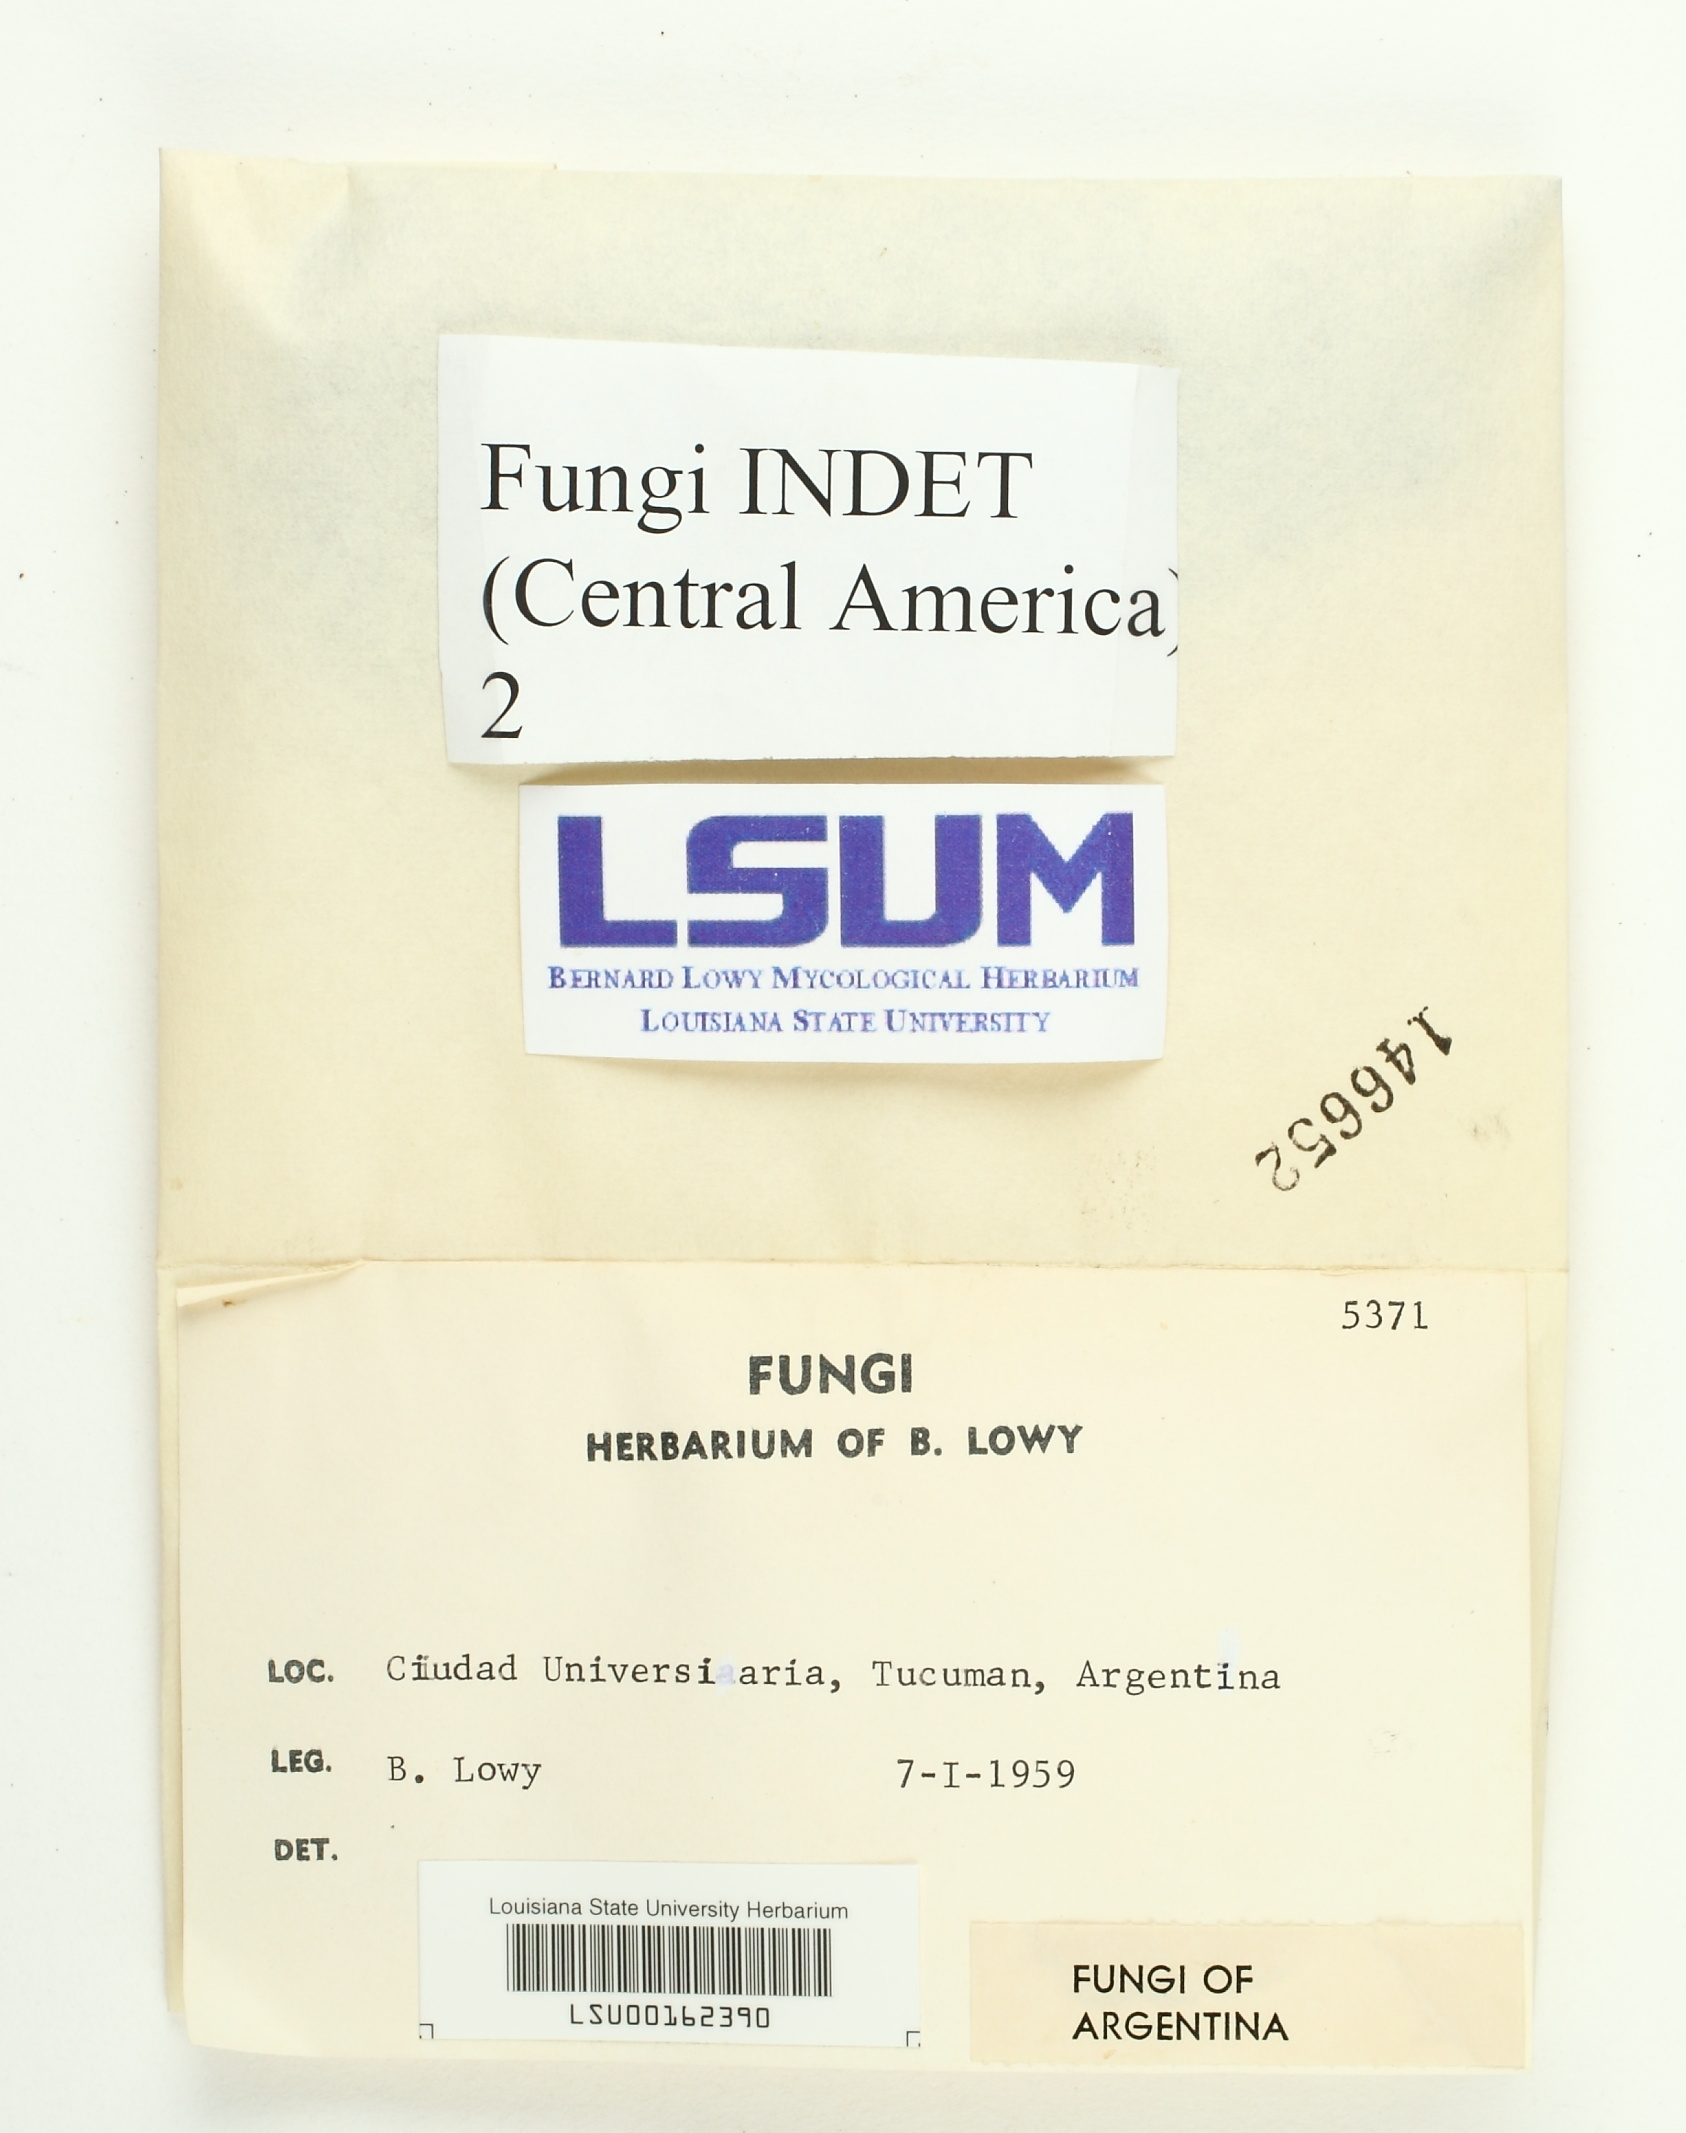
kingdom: Fungi
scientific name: Fungi
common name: Fungi
